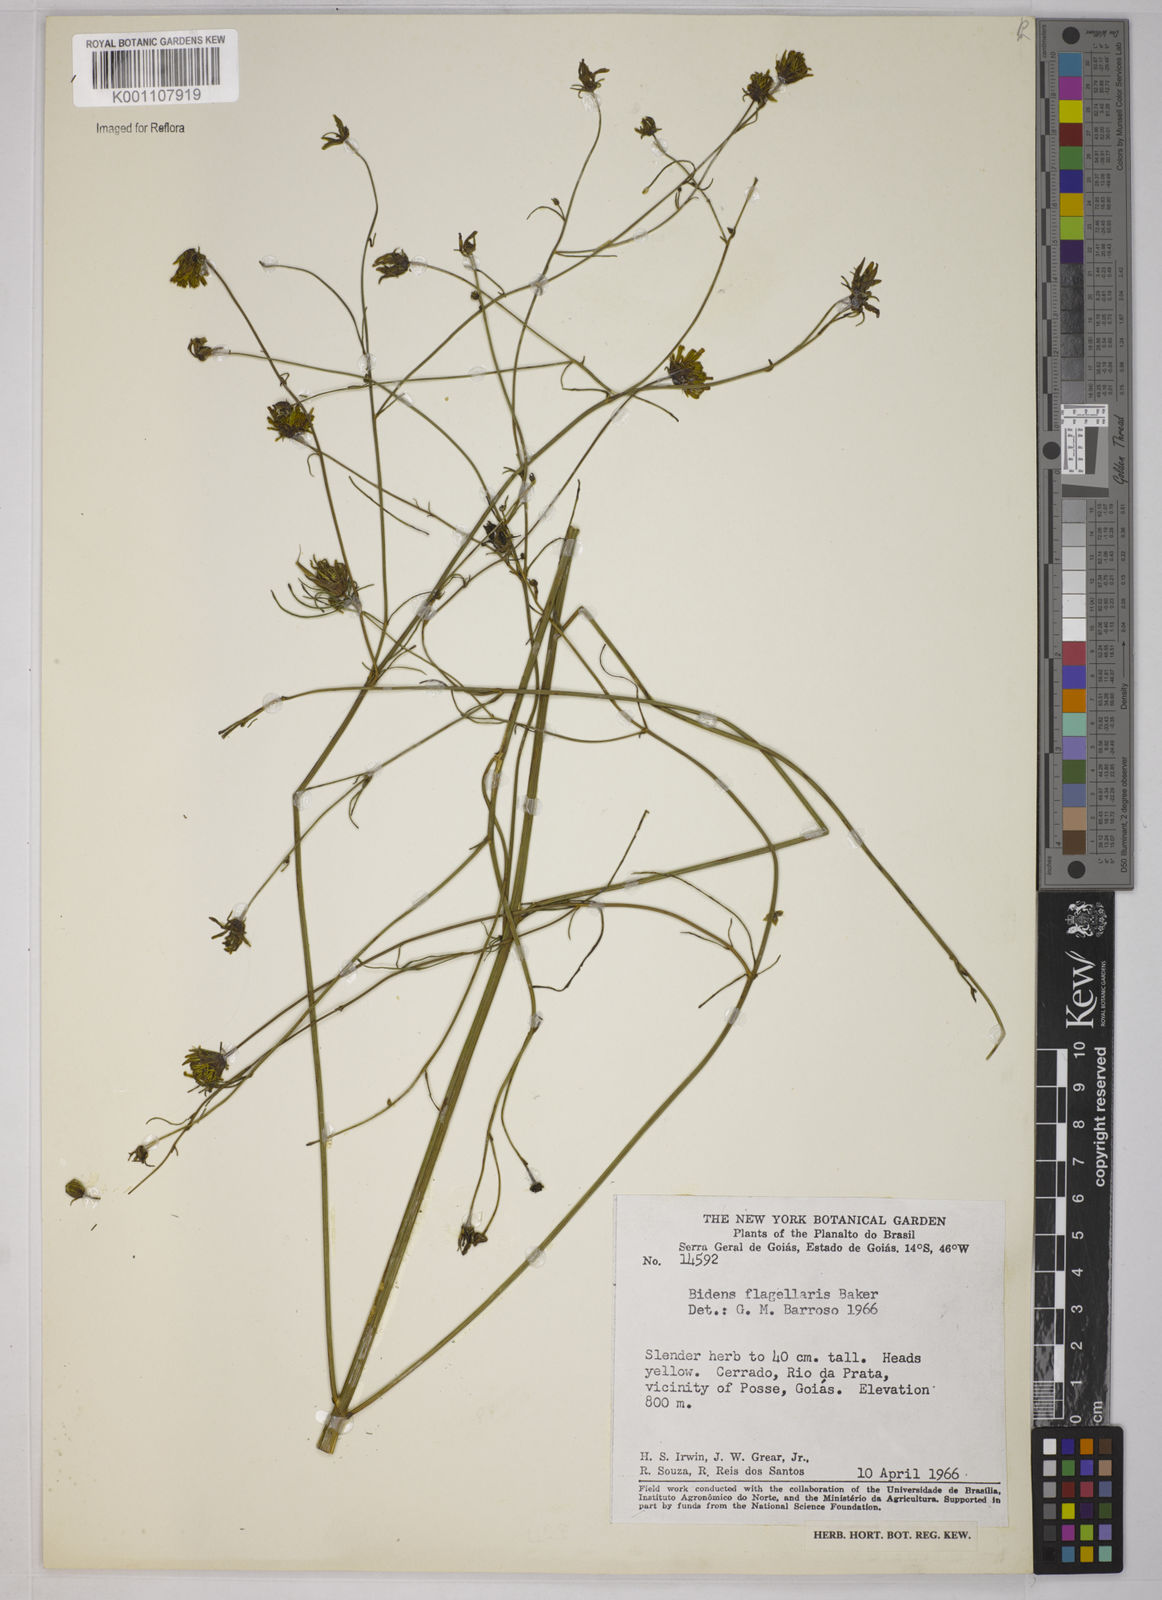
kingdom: Plantae
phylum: Tracheophyta
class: Magnoliopsida
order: Asterales
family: Asteraceae
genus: Bidens
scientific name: Bidens flagellaris
